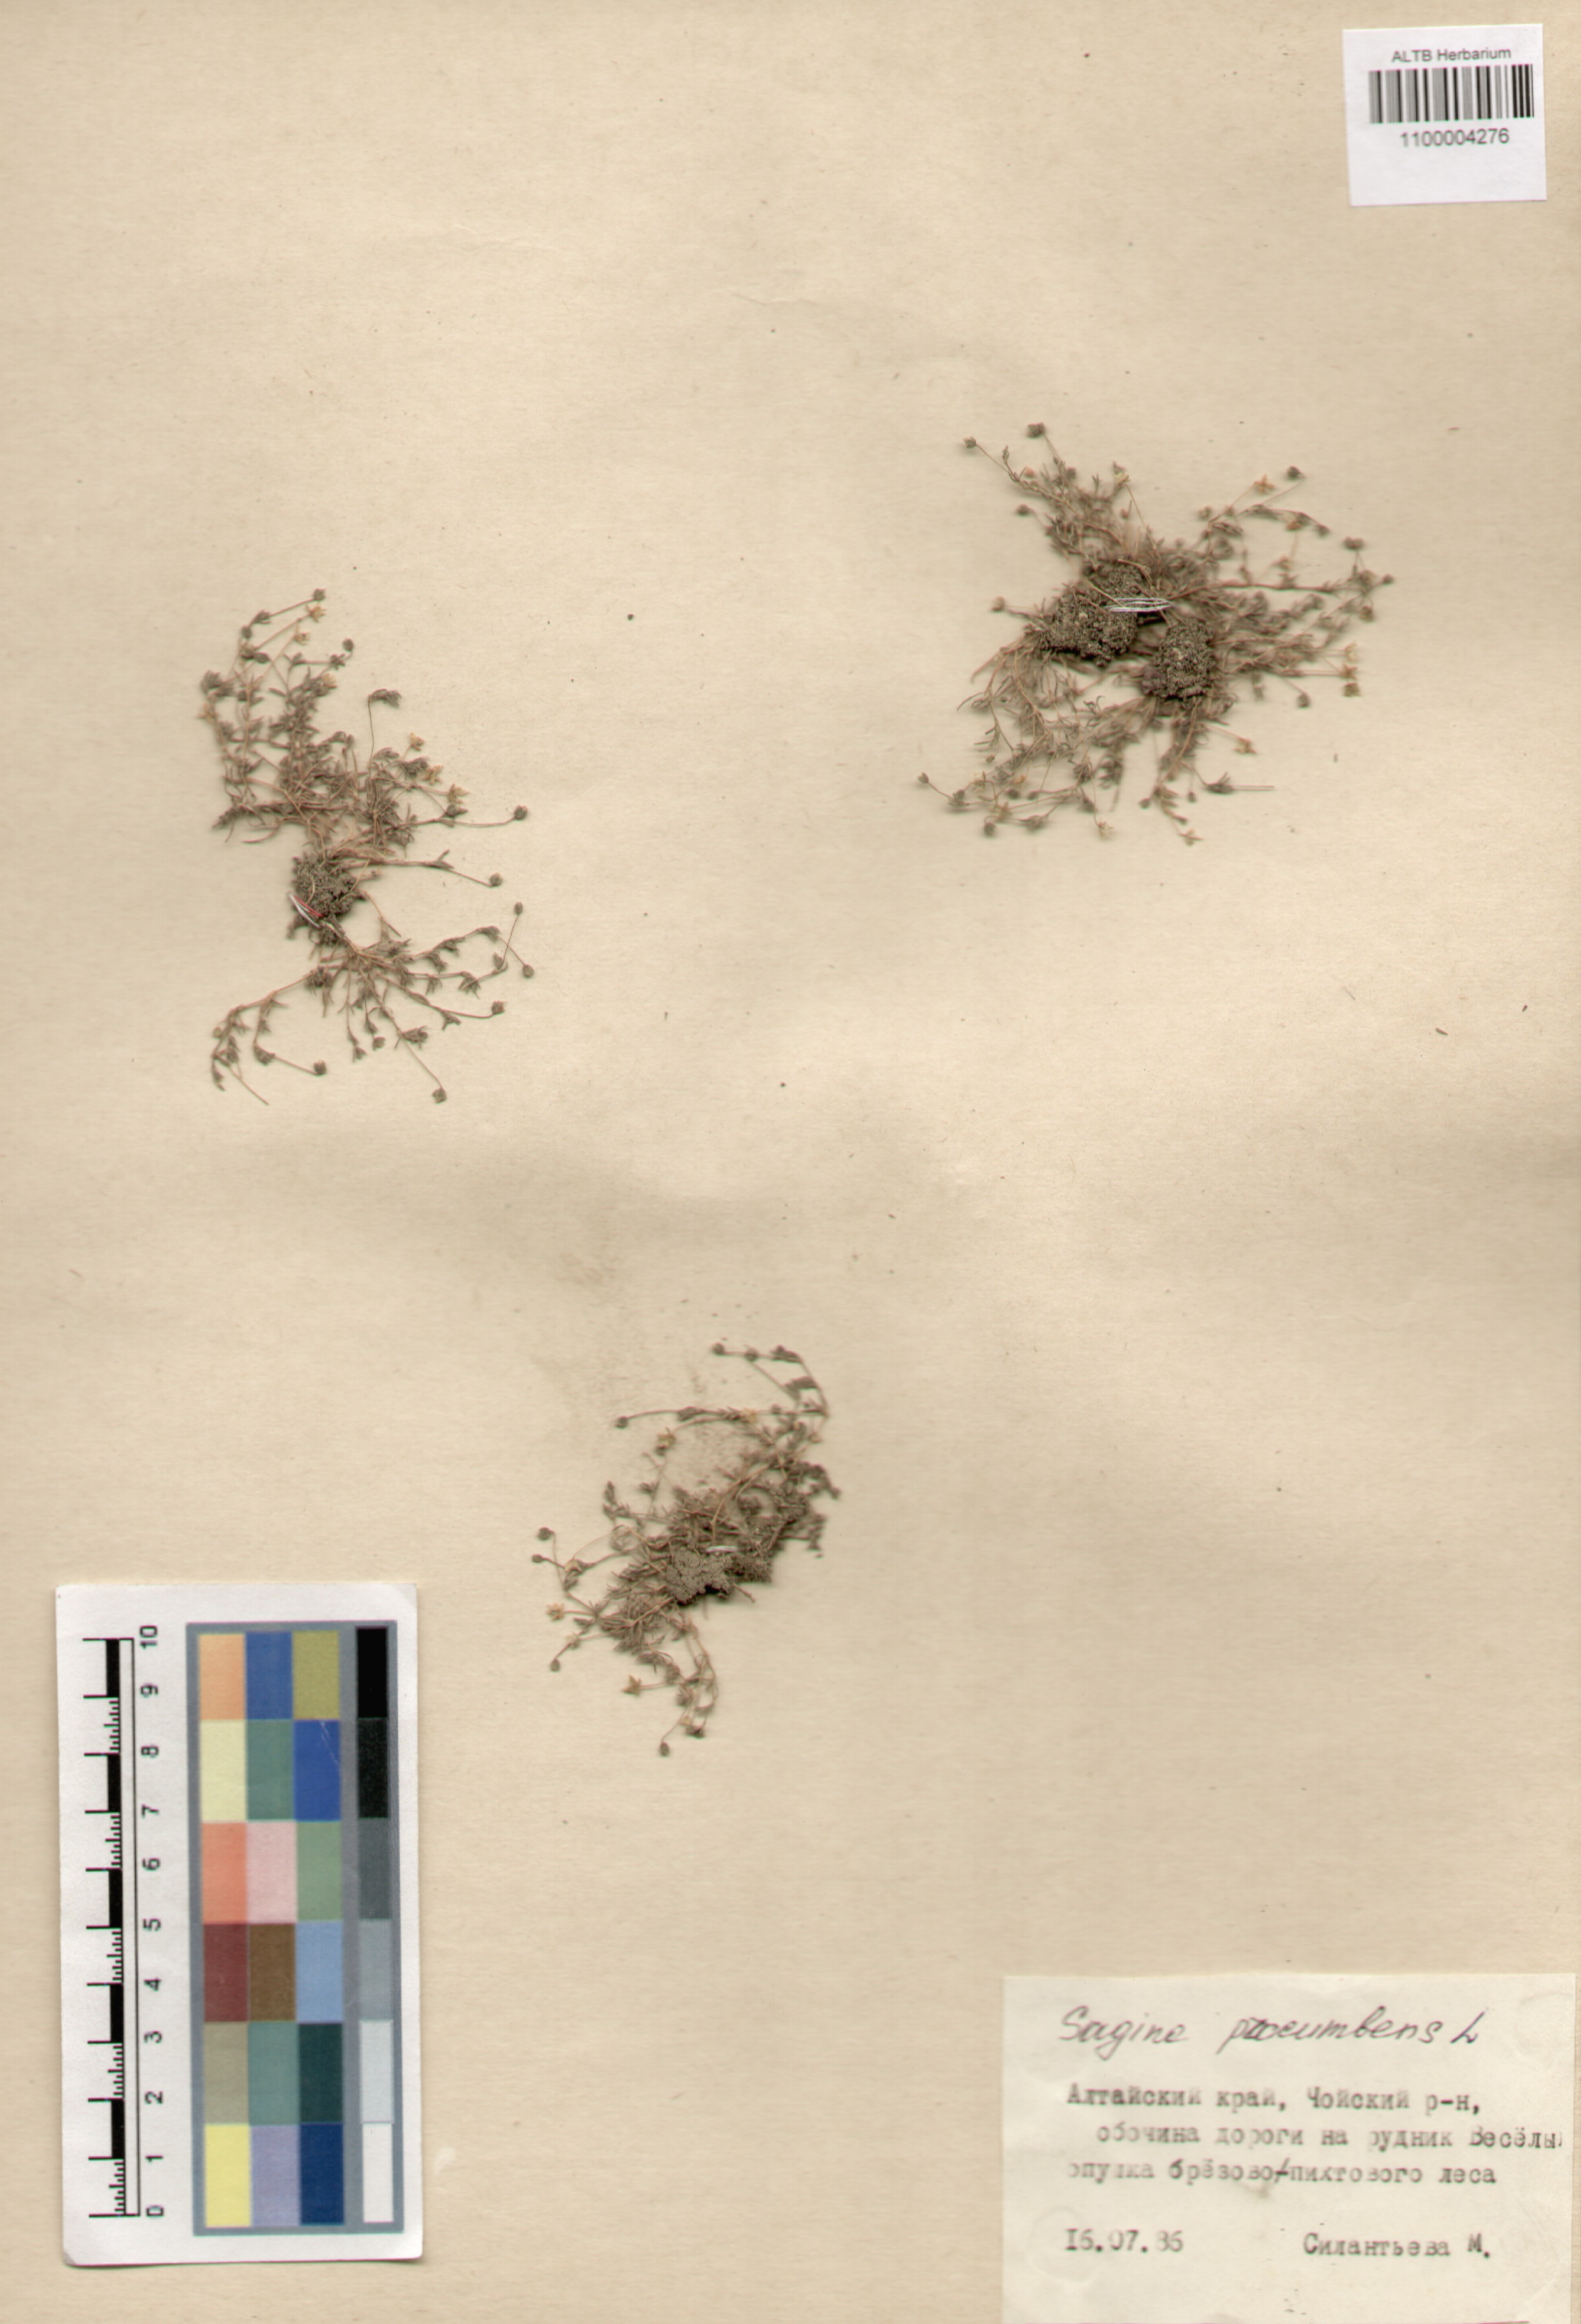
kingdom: Plantae
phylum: Tracheophyta
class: Magnoliopsida
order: Caryophyllales
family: Caryophyllaceae
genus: Sagina
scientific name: Sagina procumbens
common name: Procumbent pearlwort
